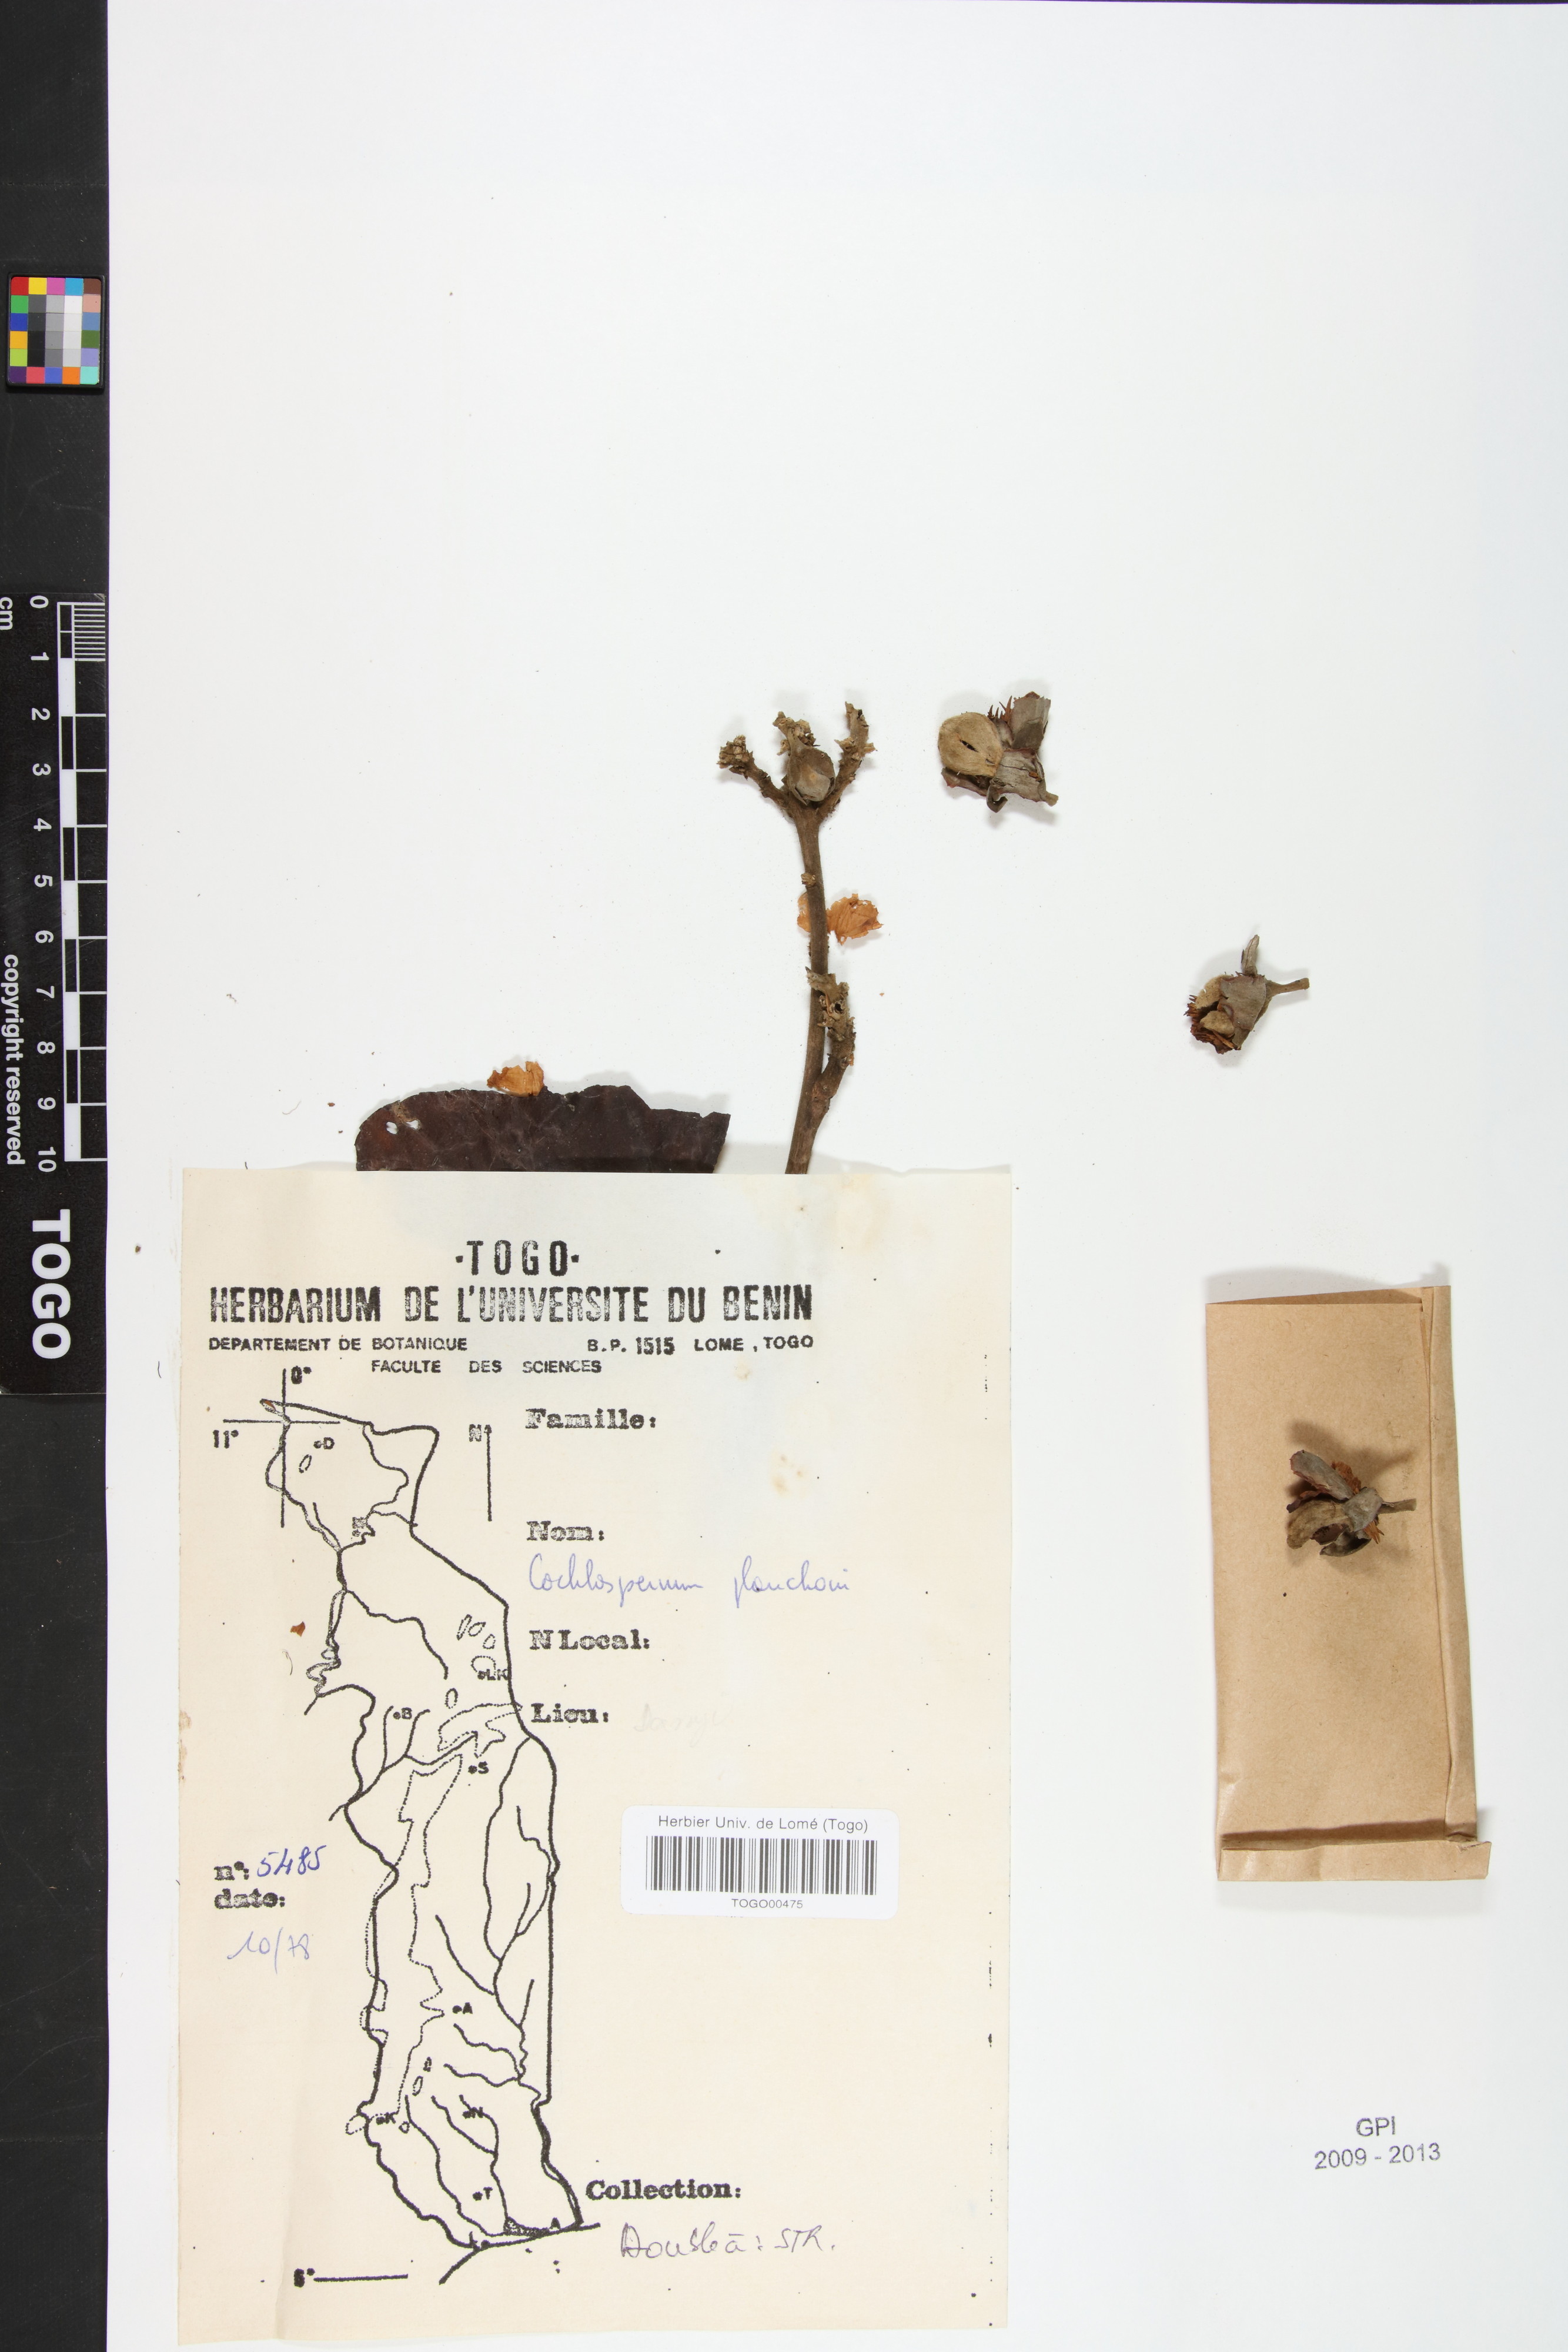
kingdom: Plantae
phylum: Tracheophyta
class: Magnoliopsida
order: Malvales
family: Cochlospermaceae
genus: Cochlospermum
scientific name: Cochlospermum planchonii
